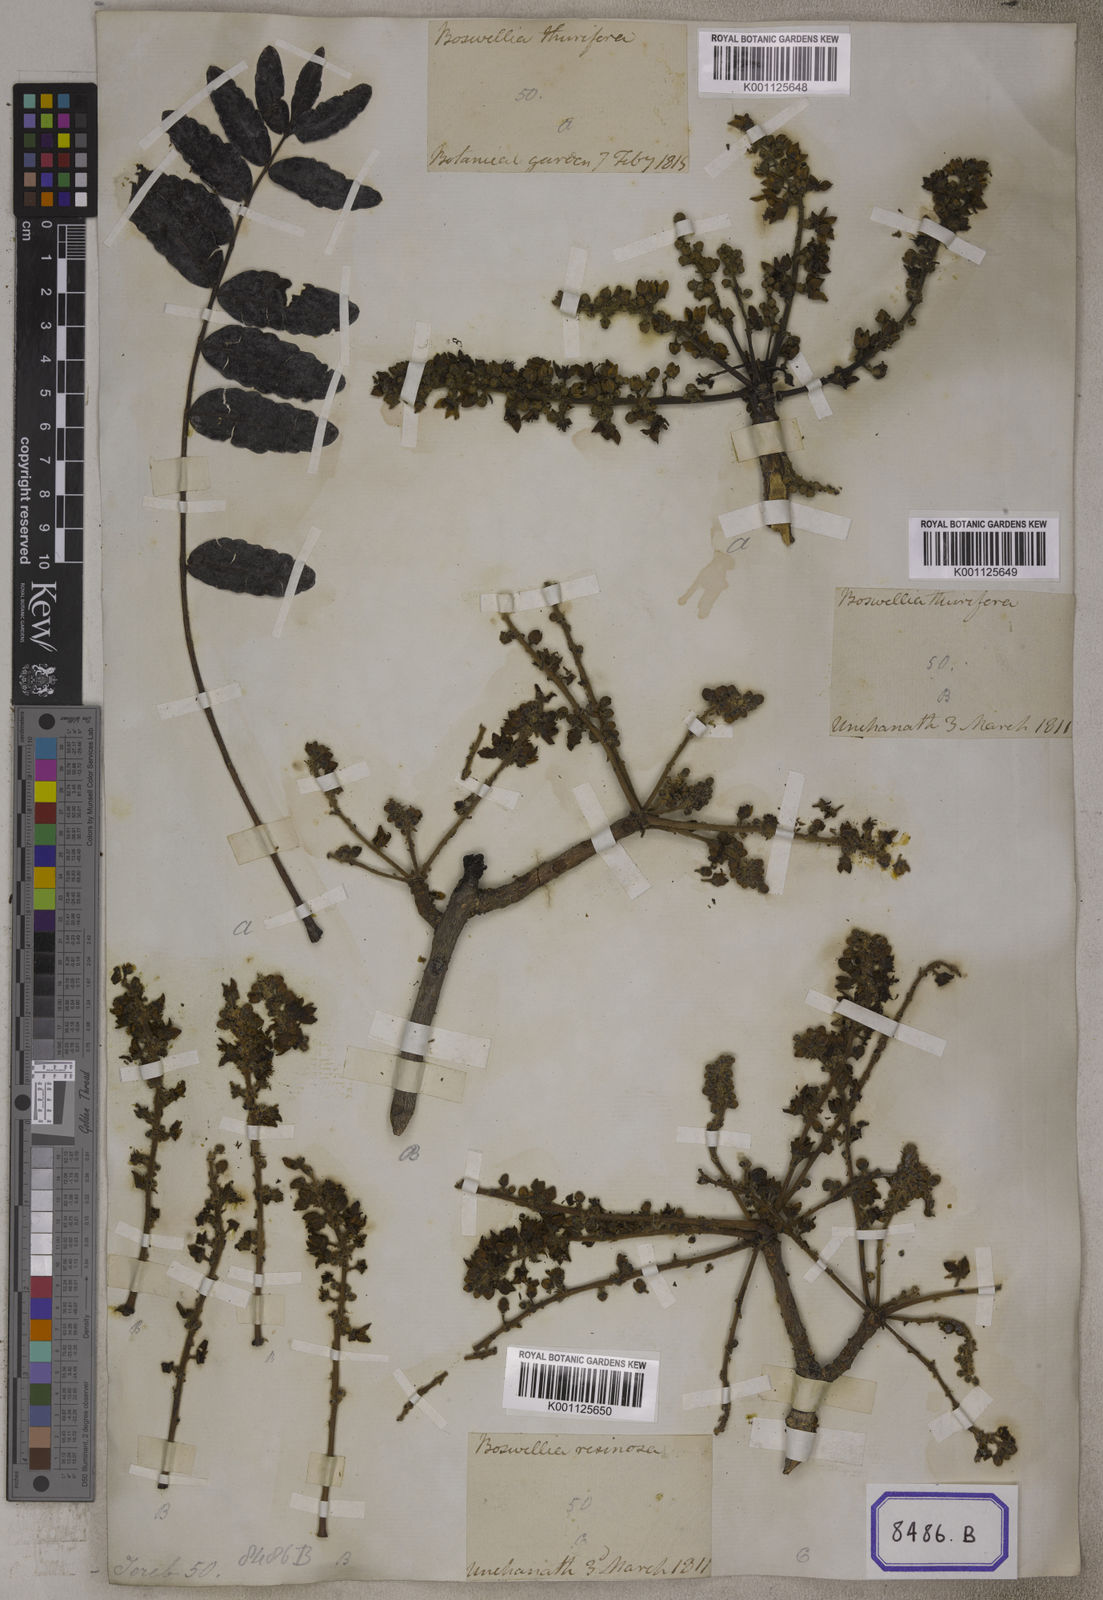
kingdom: Plantae
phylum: Tracheophyta
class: Magnoliopsida
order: Sapindales
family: Burseraceae
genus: Boswellia
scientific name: Boswellia serrata
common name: Boswellia
